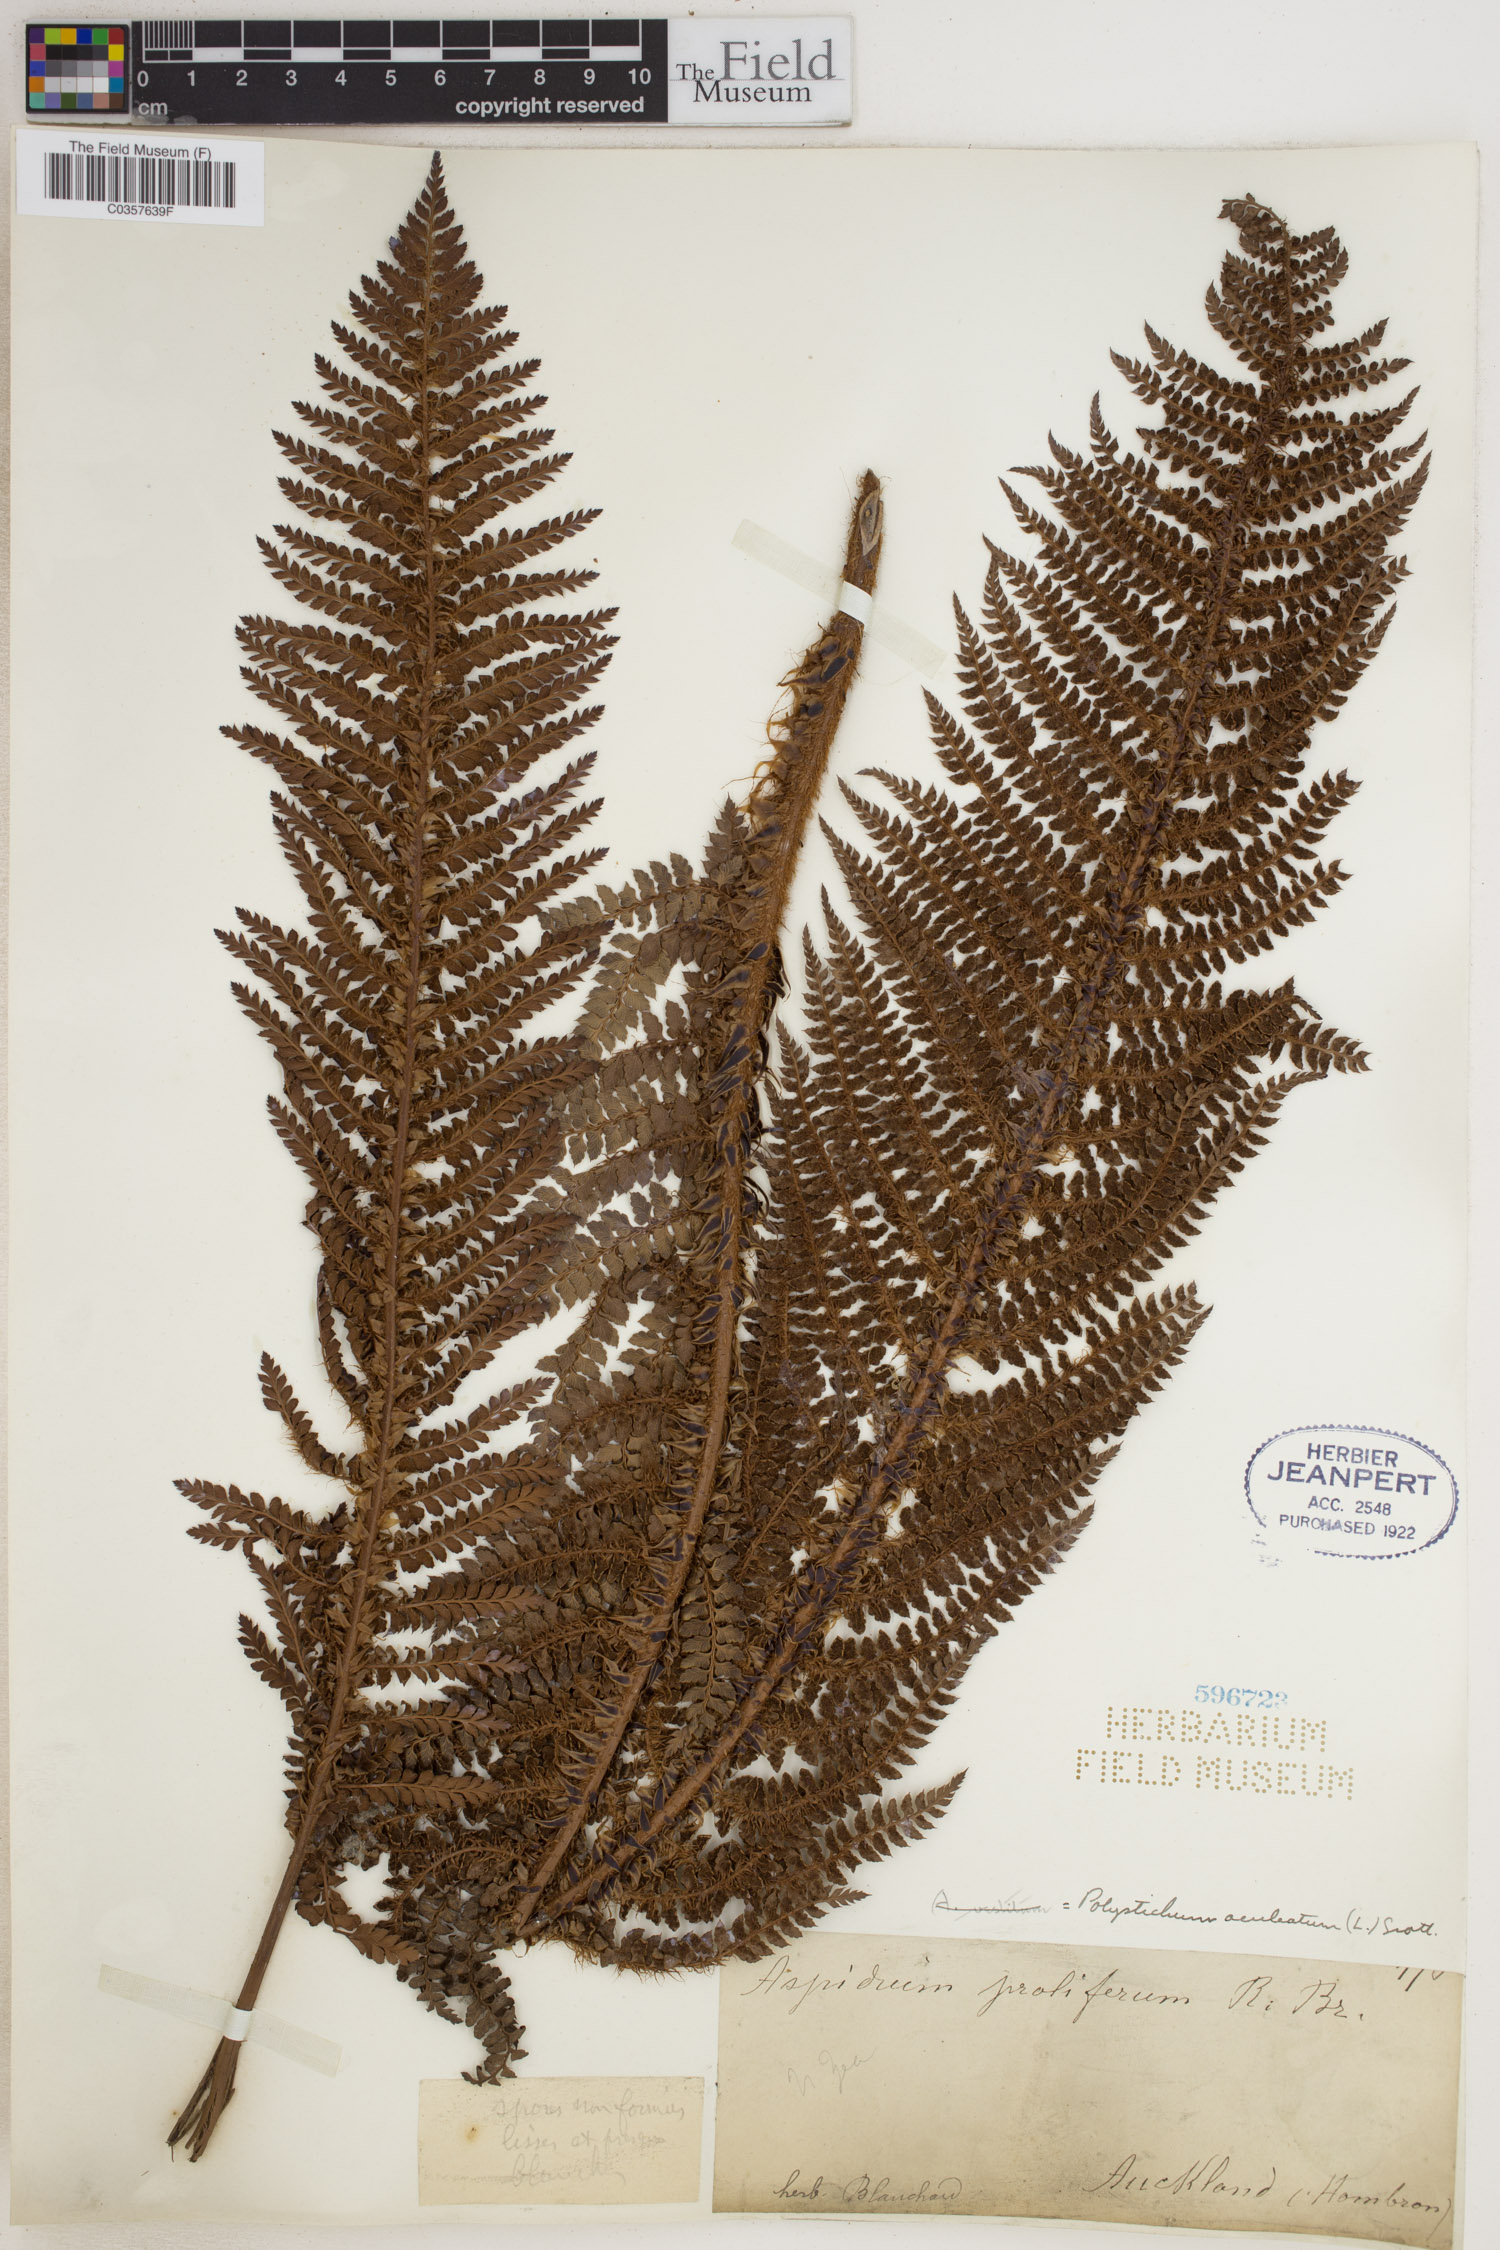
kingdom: Plantae
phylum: Tracheophyta
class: Polypodiopsida
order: Polypodiales
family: Dryopteridaceae
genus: Polystichum
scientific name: Polystichum aculeatum
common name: Hard shield-fern
